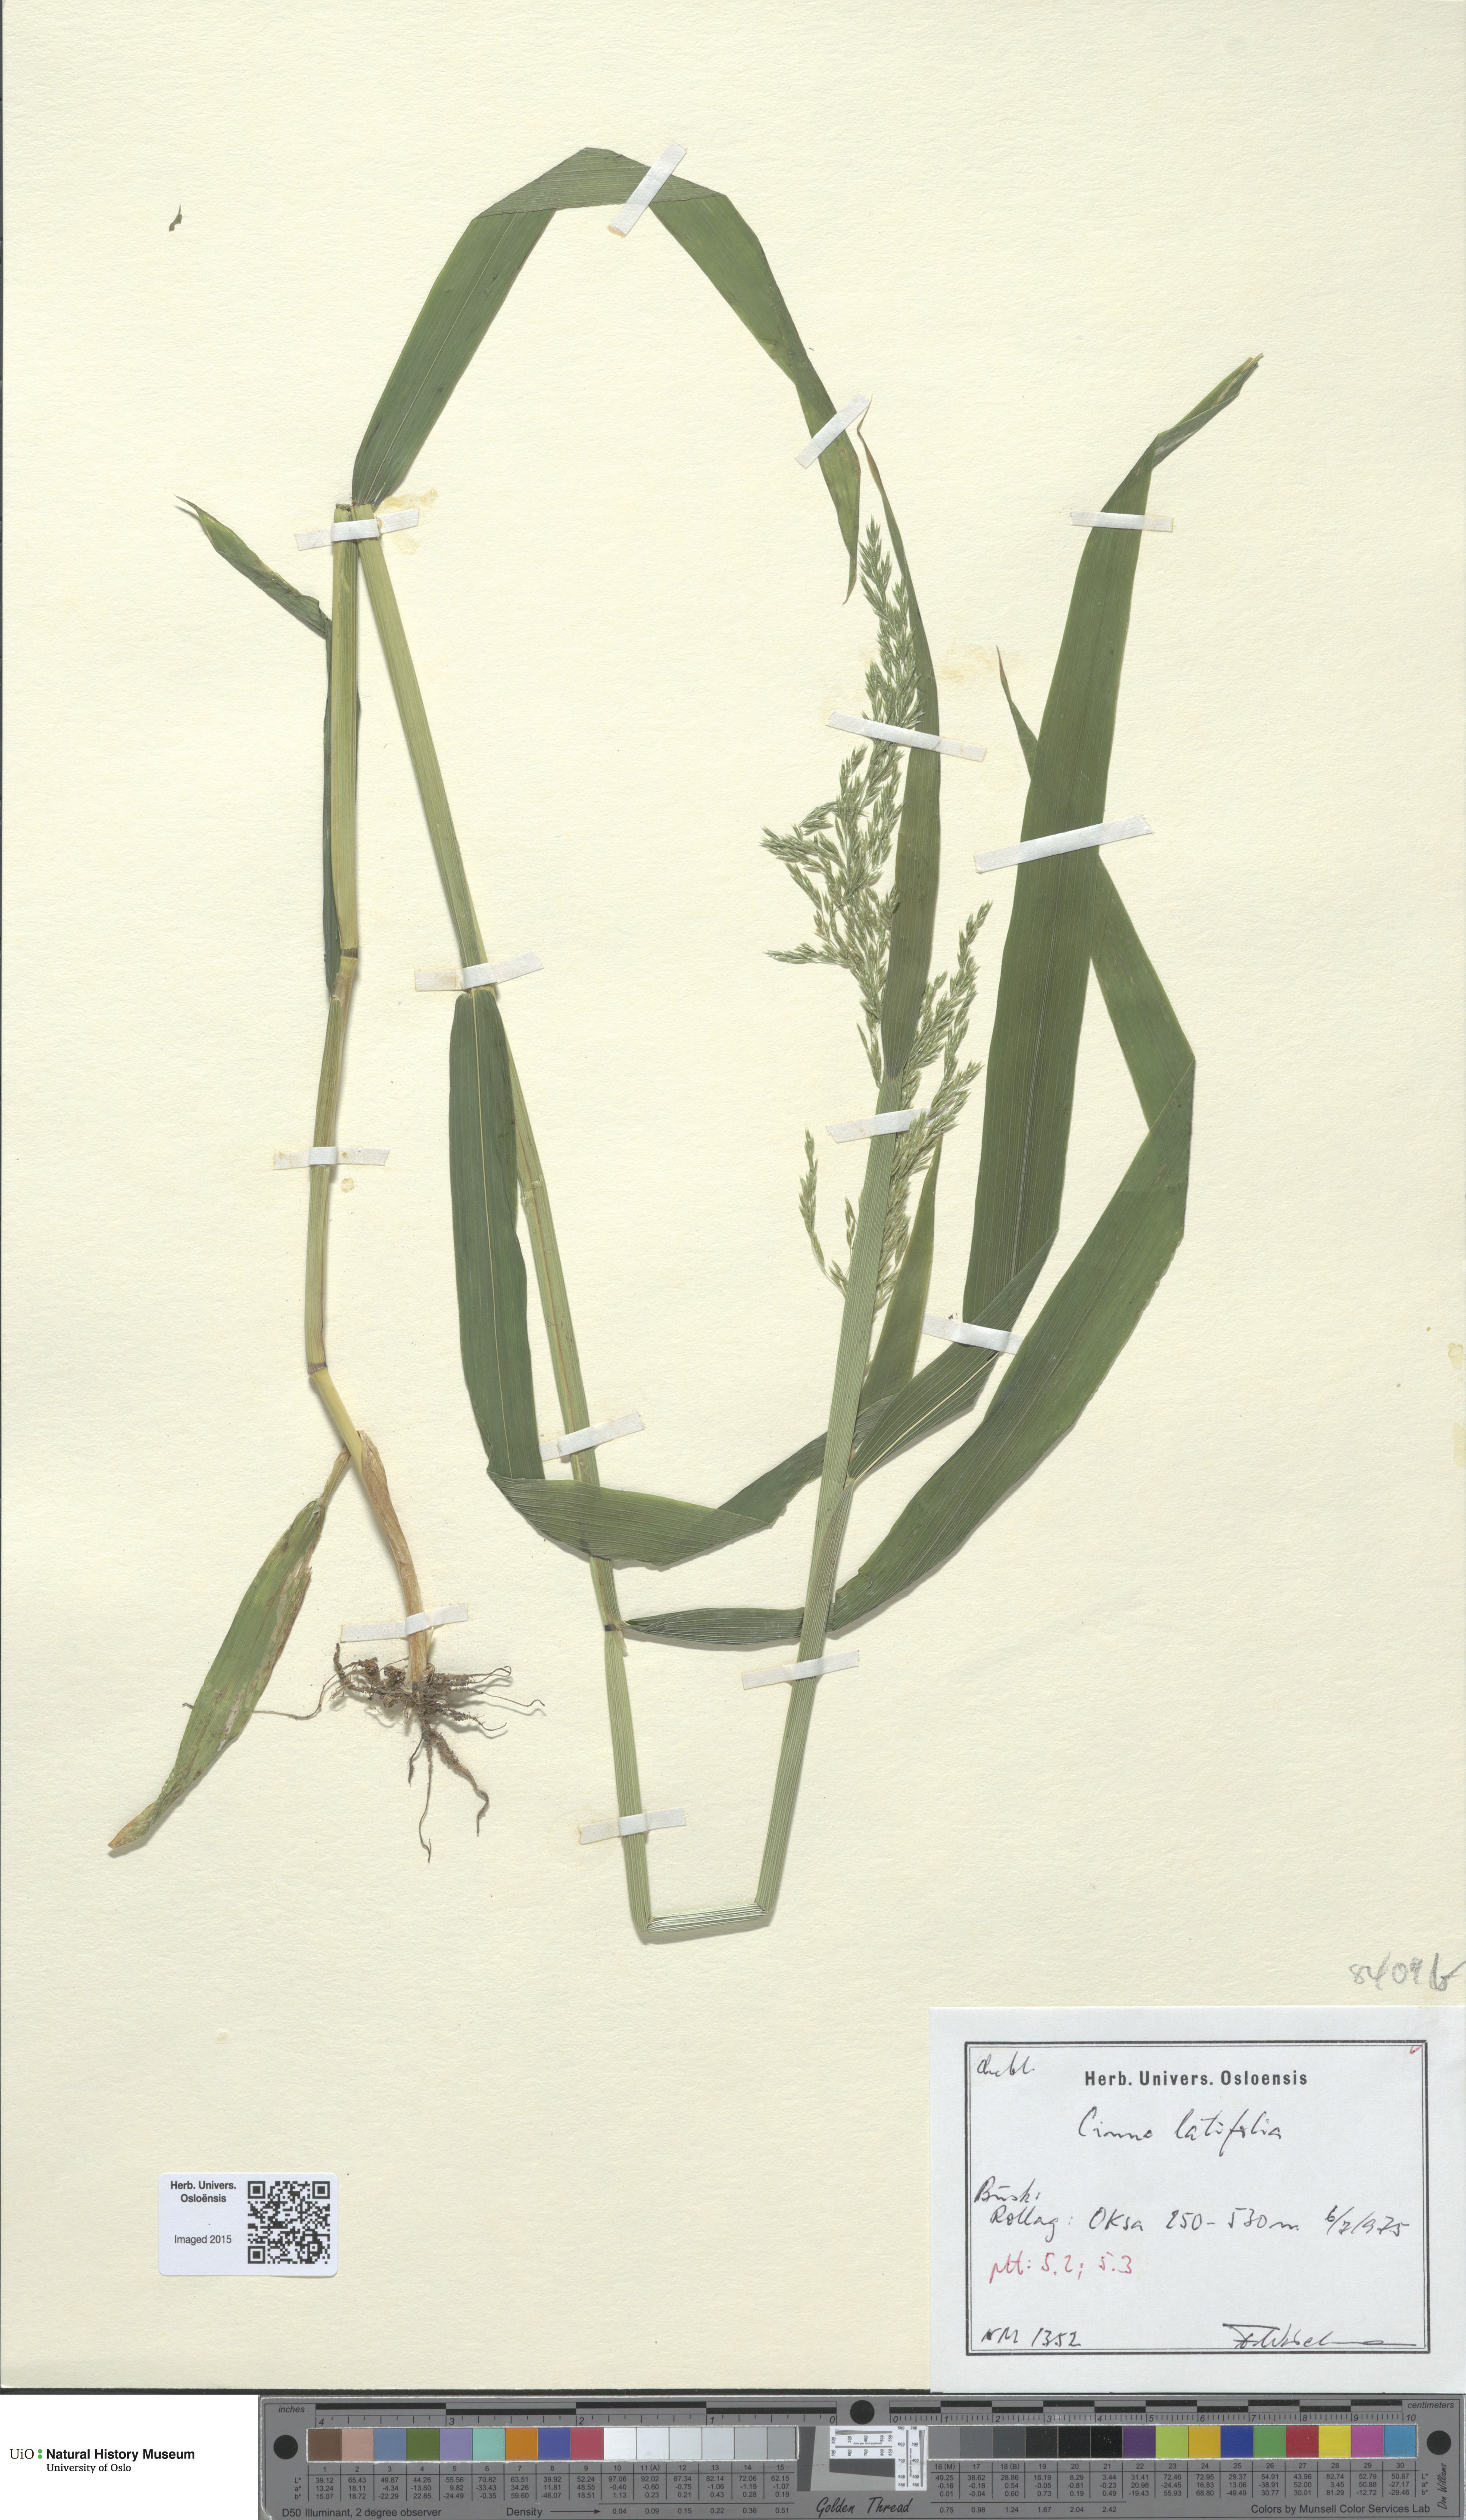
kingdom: Plantae
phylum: Tracheophyta
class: Liliopsida
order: Poales
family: Poaceae
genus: Cinna
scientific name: Cinna latifolia
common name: Drooping woodreed
